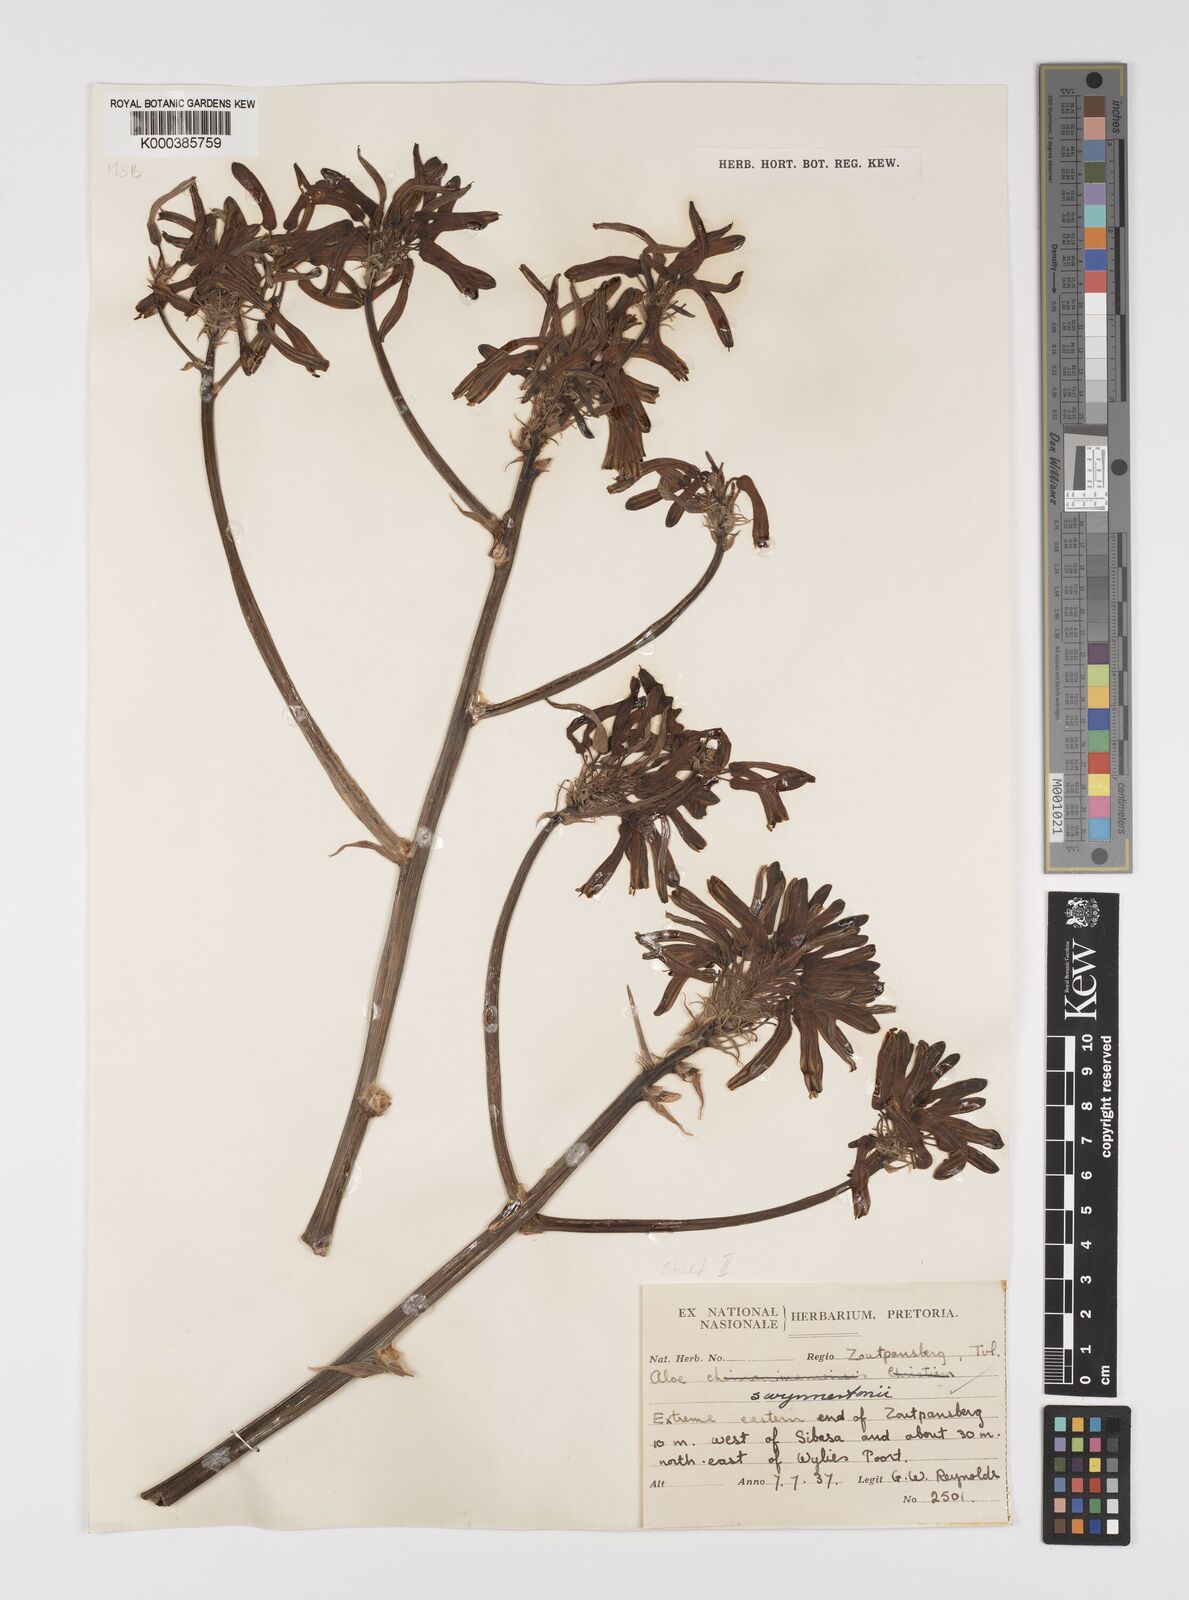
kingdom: Plantae
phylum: Tracheophyta
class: Liliopsida
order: Asparagales
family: Asphodelaceae
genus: Aloe
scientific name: Aloe swynnertonii
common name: Swynnerton's aloe
